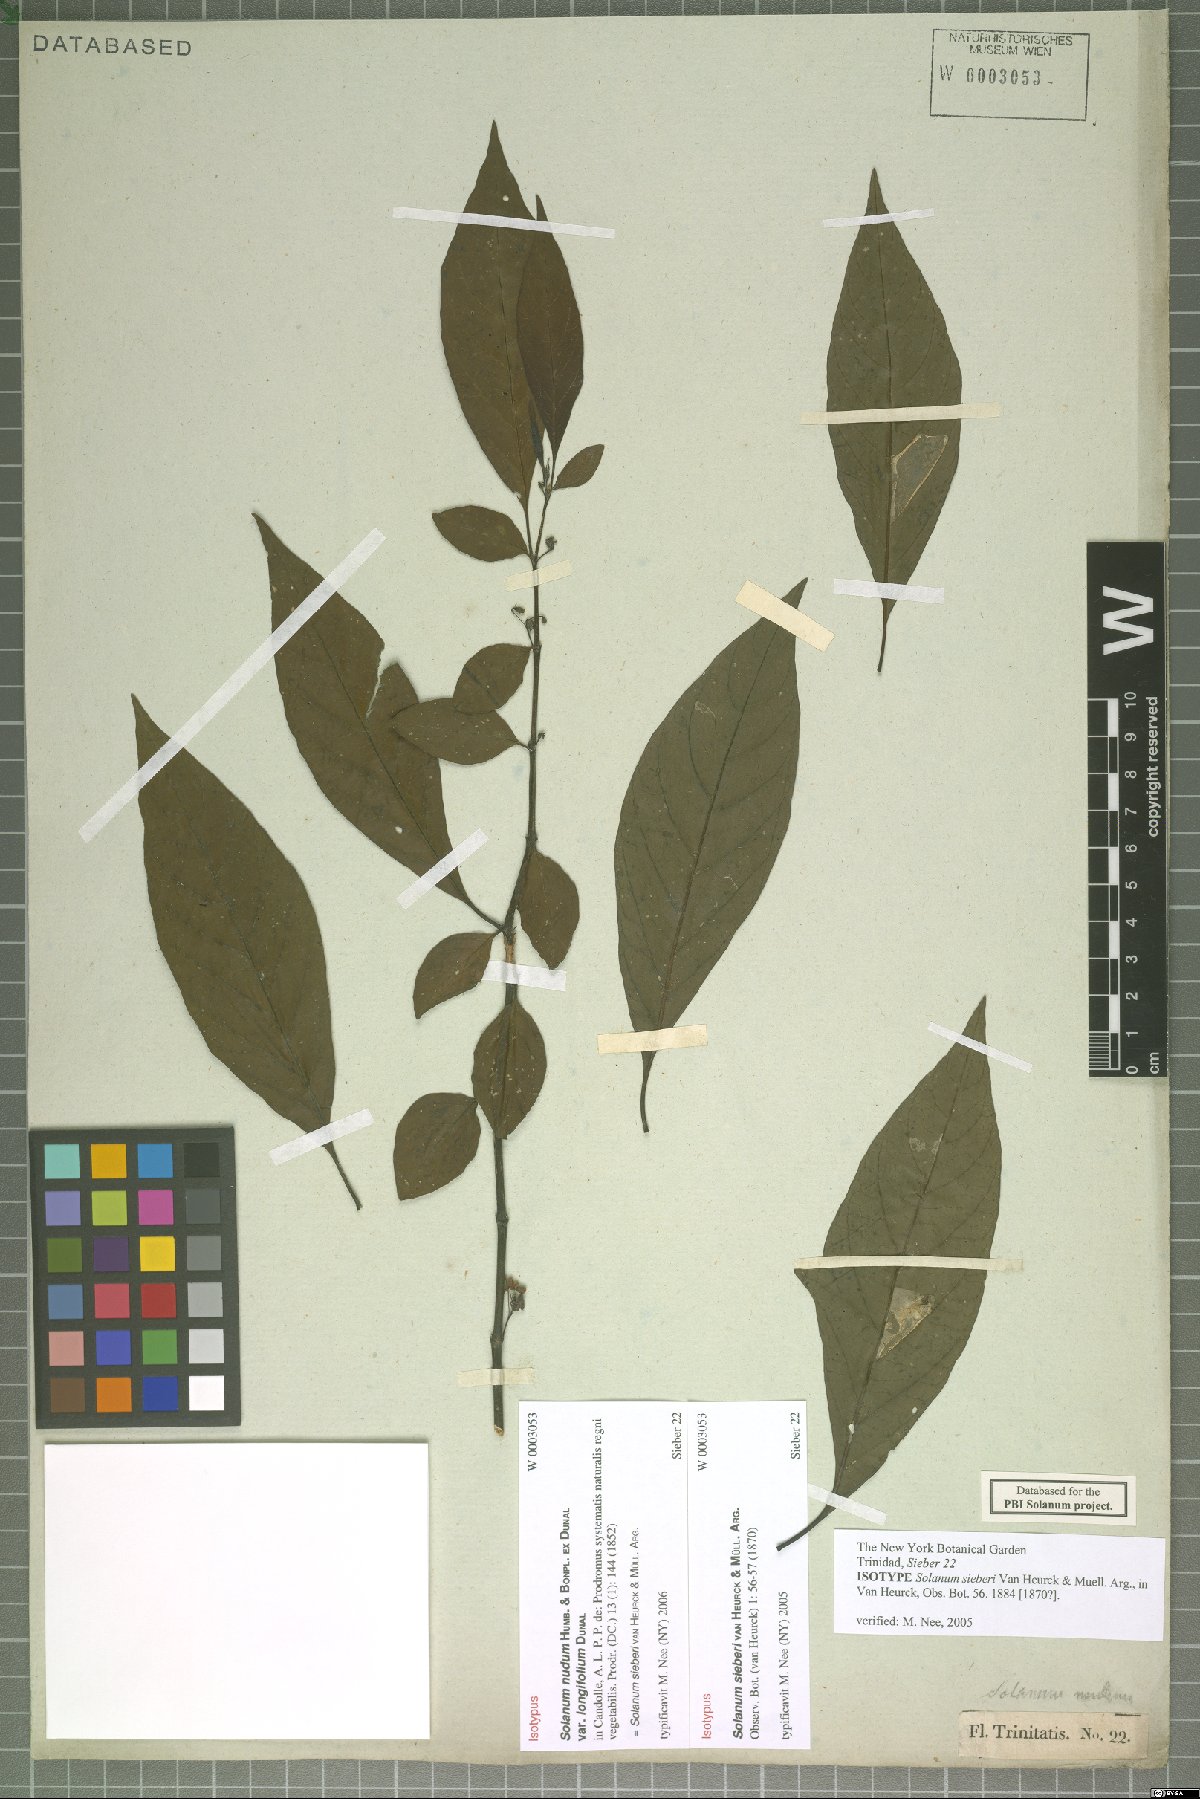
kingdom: Plantae
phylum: Tracheophyta
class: Magnoliopsida
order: Solanales
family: Solanaceae
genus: Solanum
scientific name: Solanum sieberi
